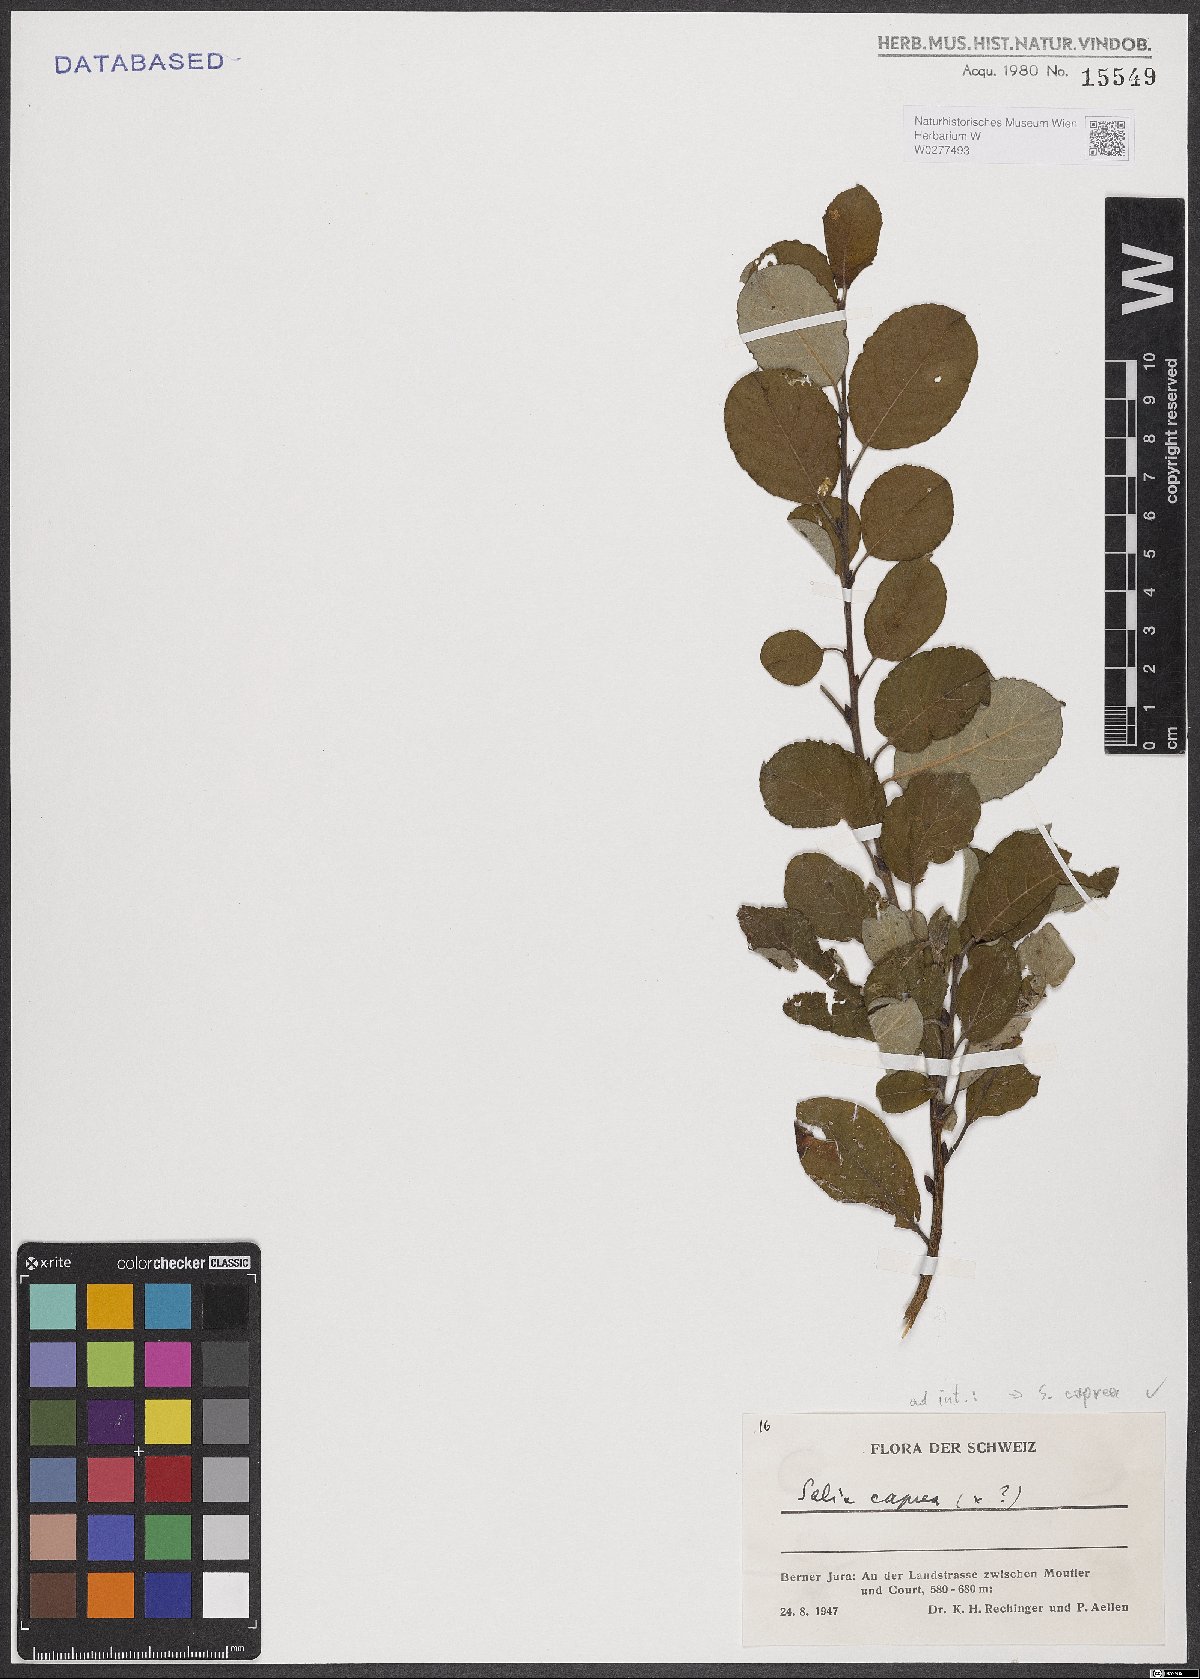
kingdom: Plantae
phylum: Tracheophyta
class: Magnoliopsida
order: Malpighiales
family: Salicaceae
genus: Salix
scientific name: Salix caprea
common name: Goat willow
